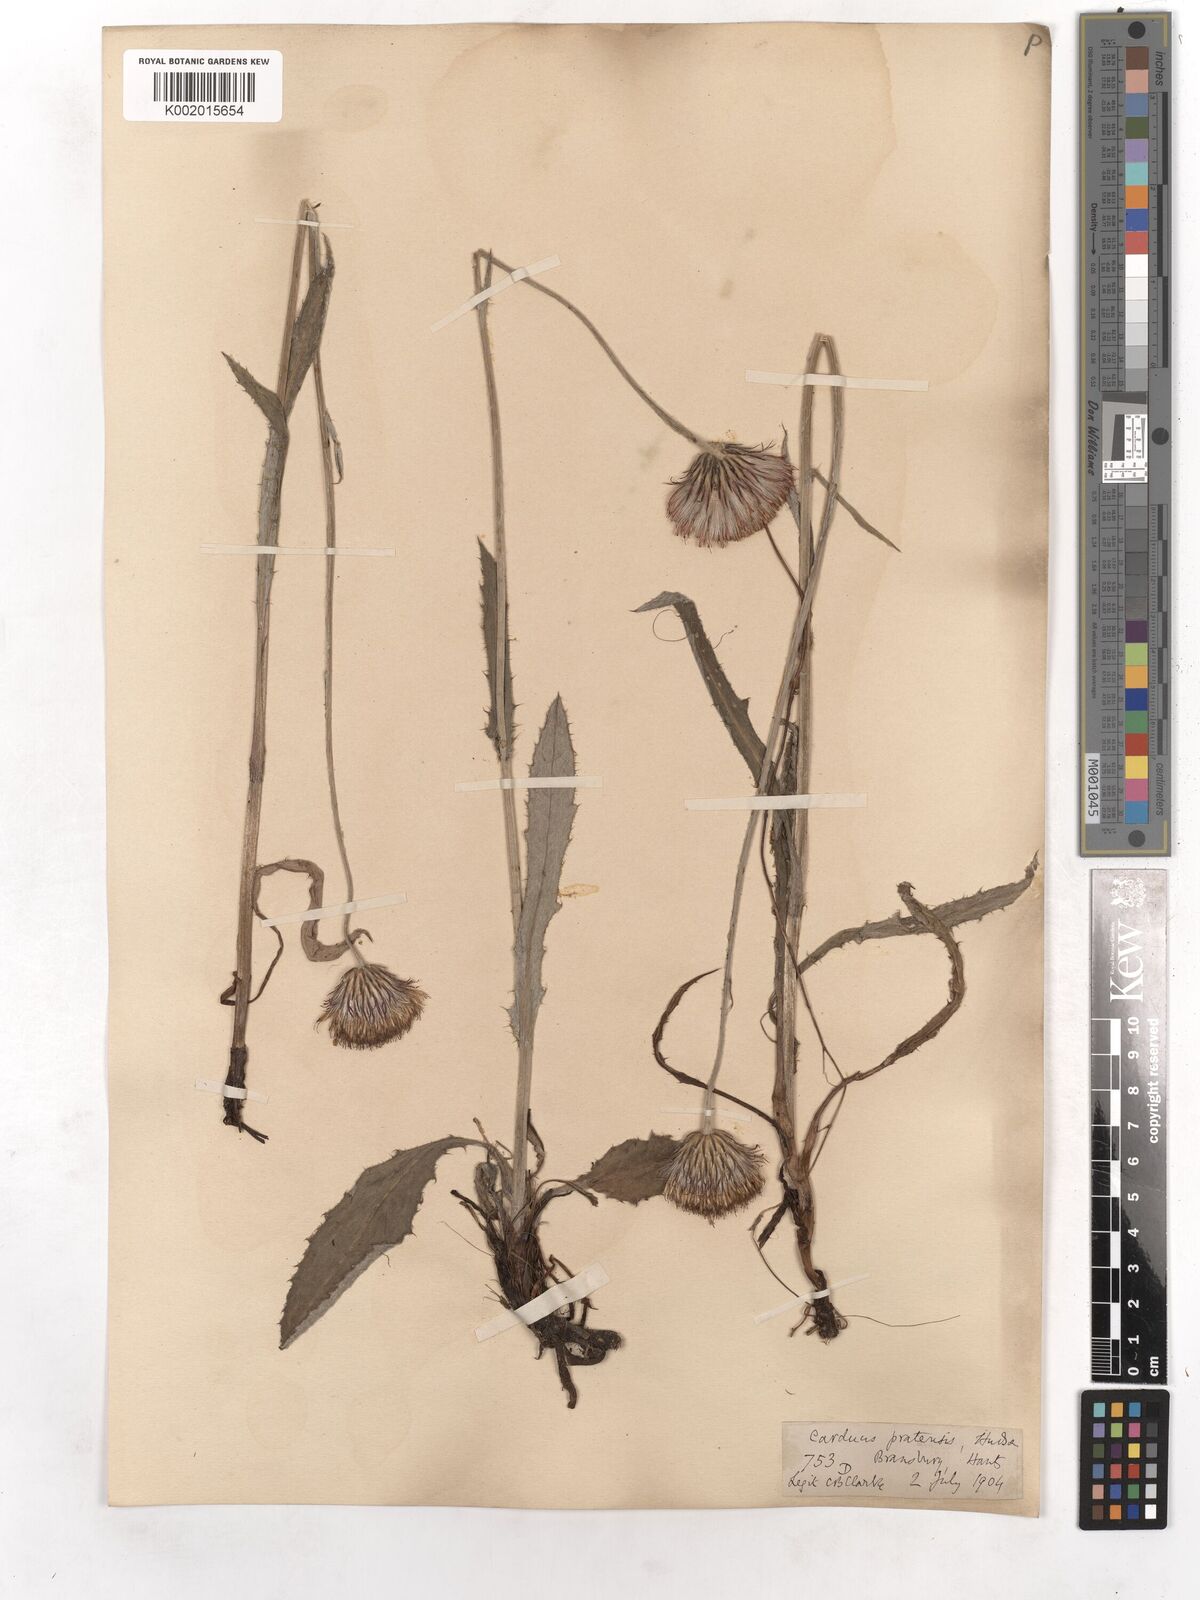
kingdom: Plantae
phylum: Tracheophyta
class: Magnoliopsida
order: Asterales
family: Asteraceae
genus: Cirsium
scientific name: Cirsium dissectum
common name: Meadow thistle
